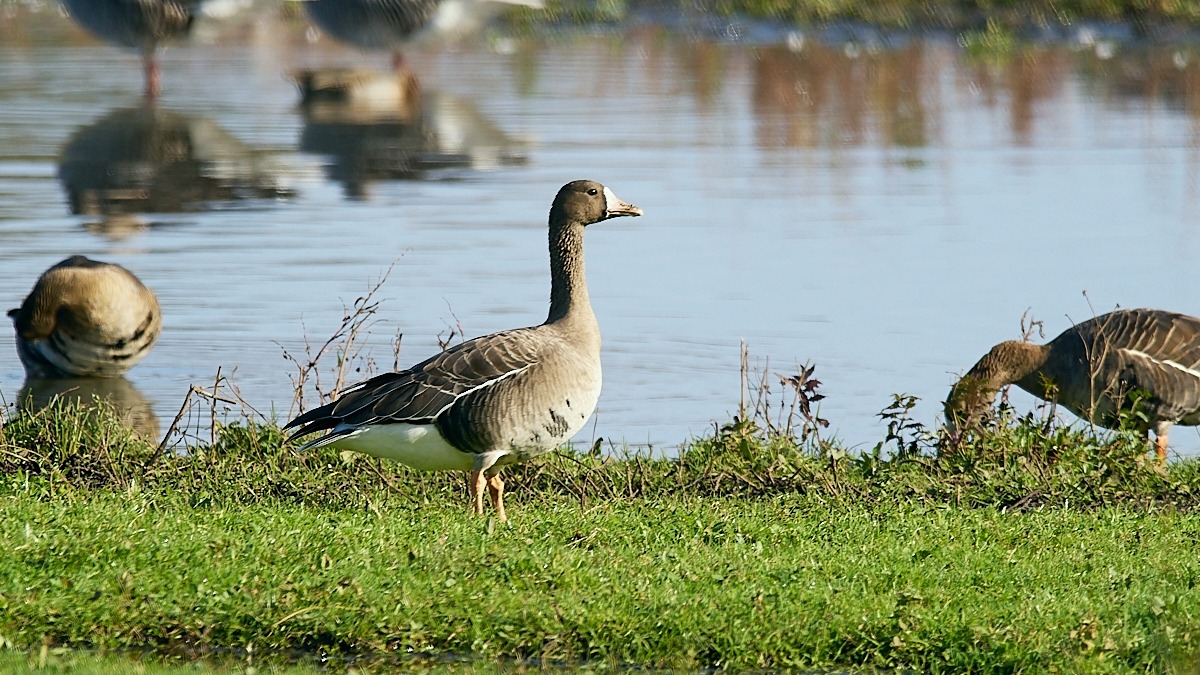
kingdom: Animalia
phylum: Chordata
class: Aves
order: Anseriformes
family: Anatidae
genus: Anser
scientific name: Anser albifrons
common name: Blisgås
